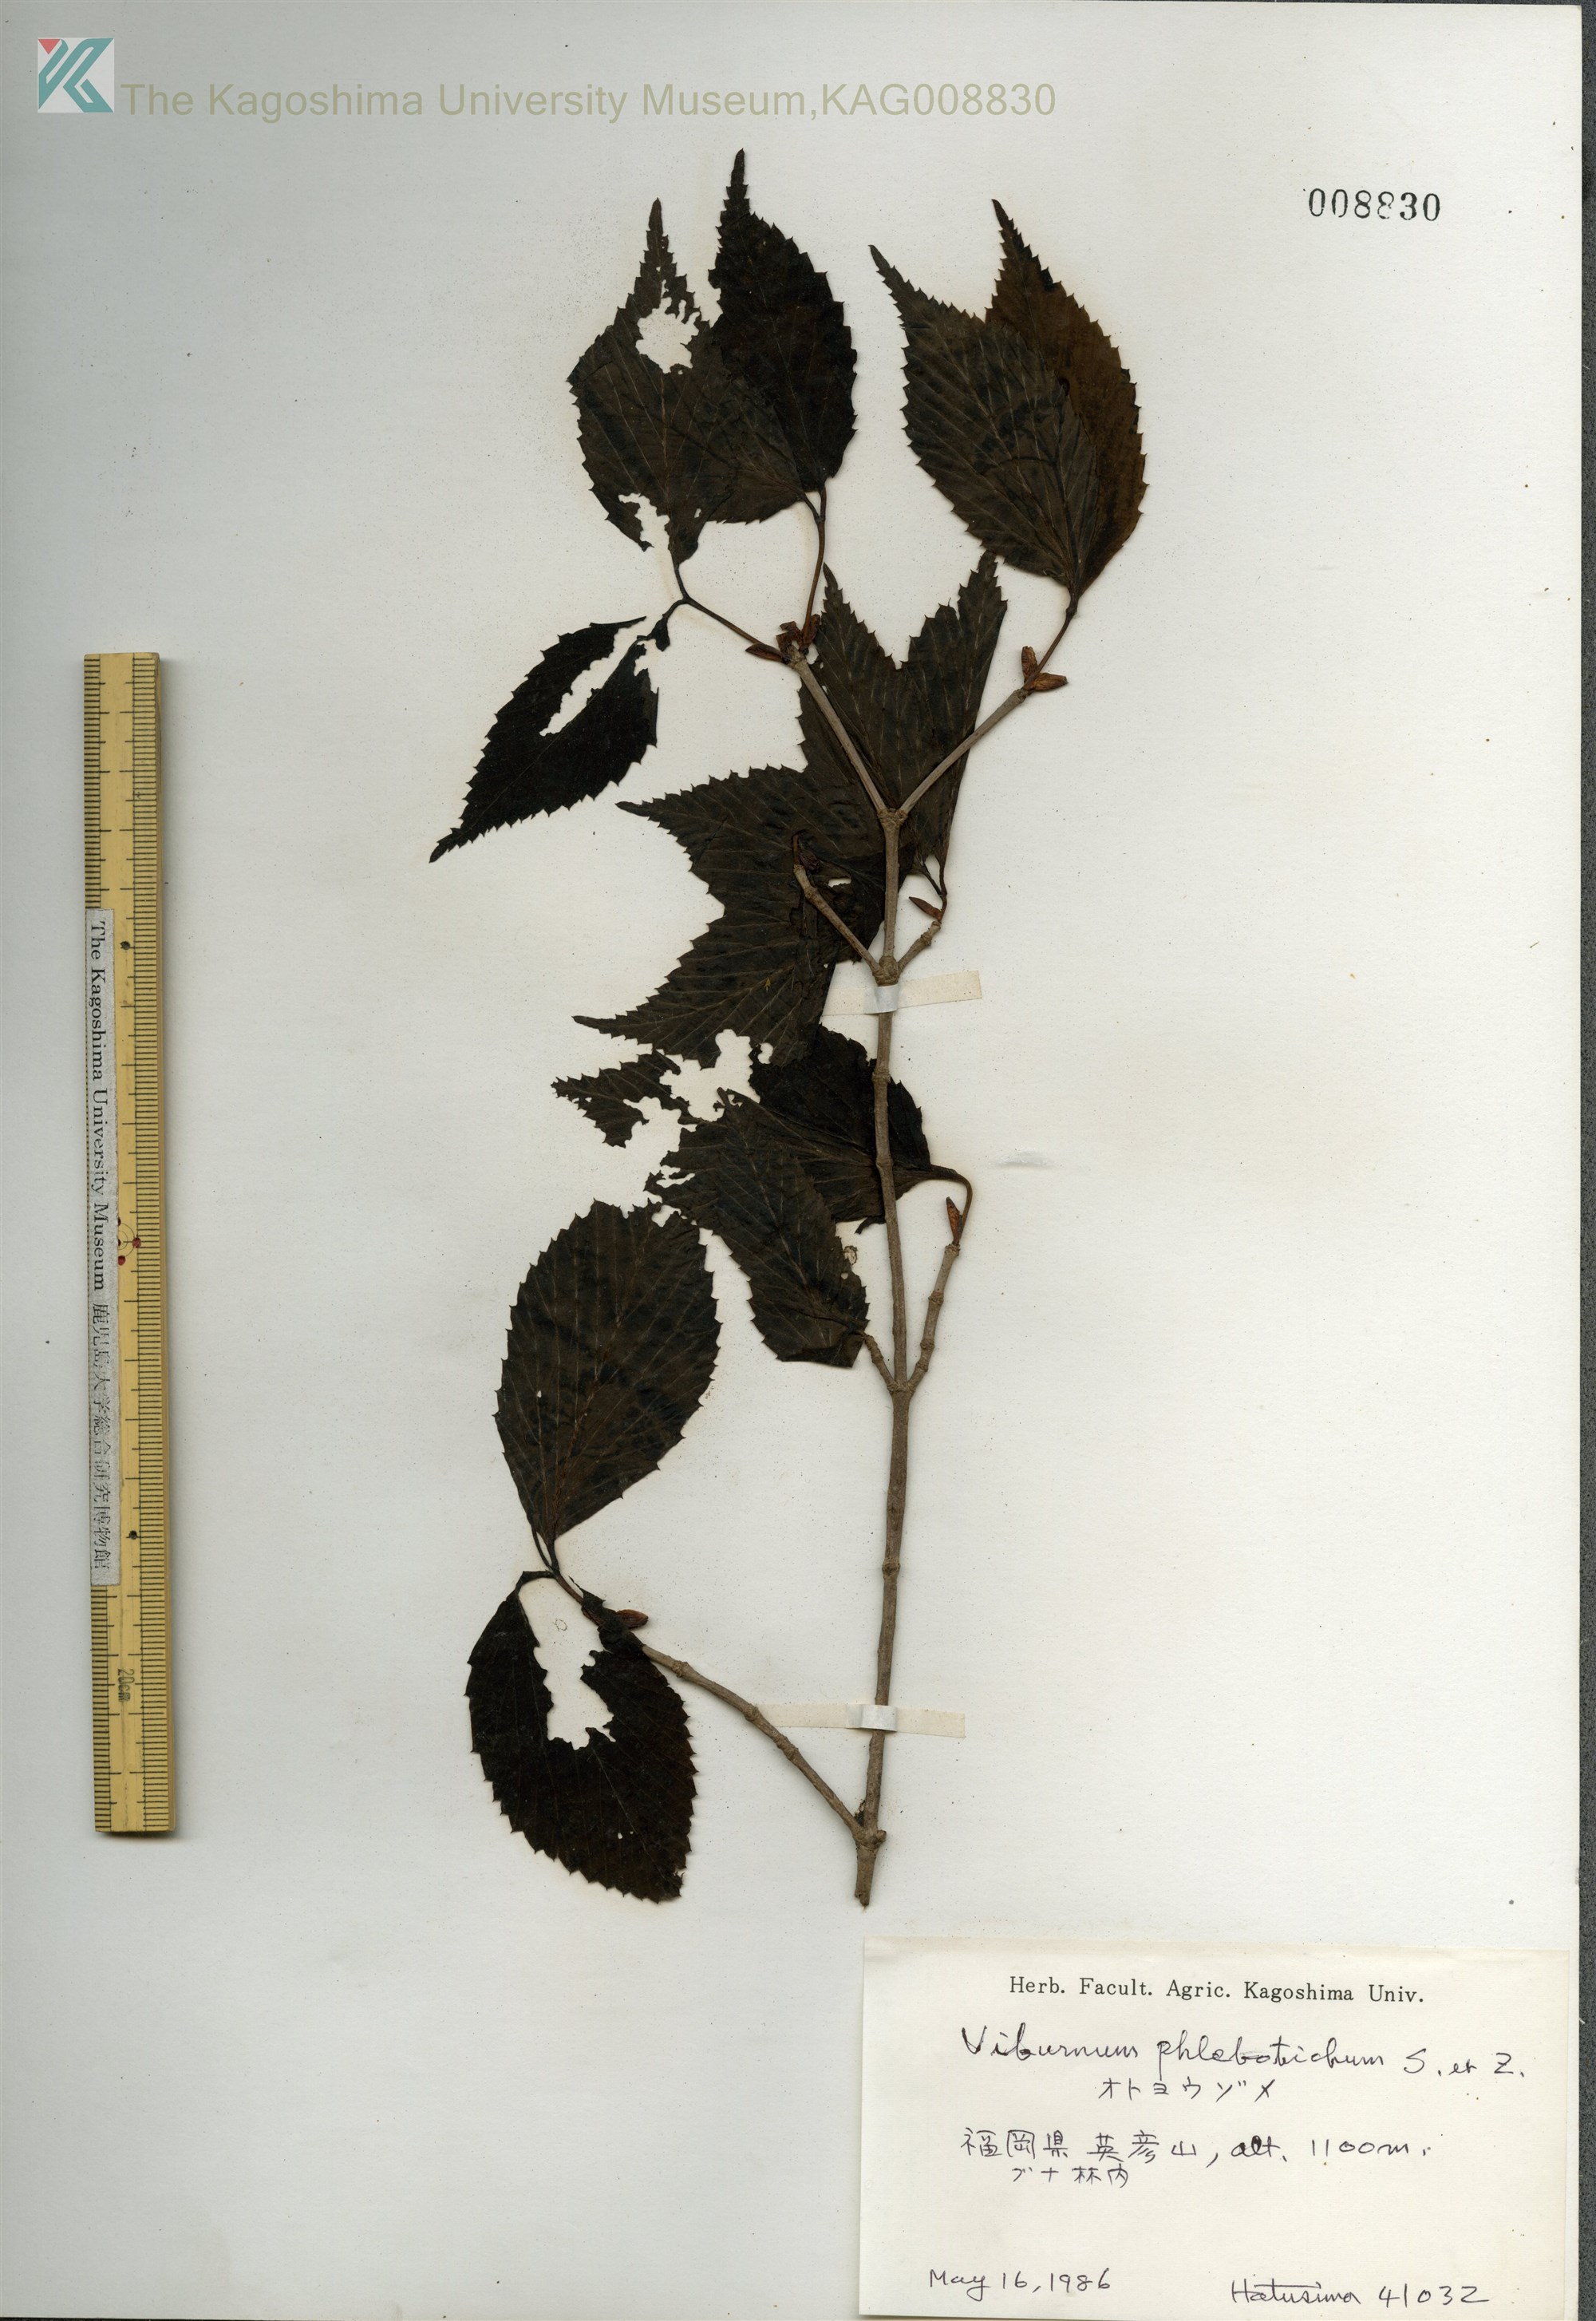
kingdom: Plantae
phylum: Tracheophyta
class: Magnoliopsida
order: Dipsacales
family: Viburnaceae
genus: Viburnum
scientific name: Viburnum phlebotrichum
